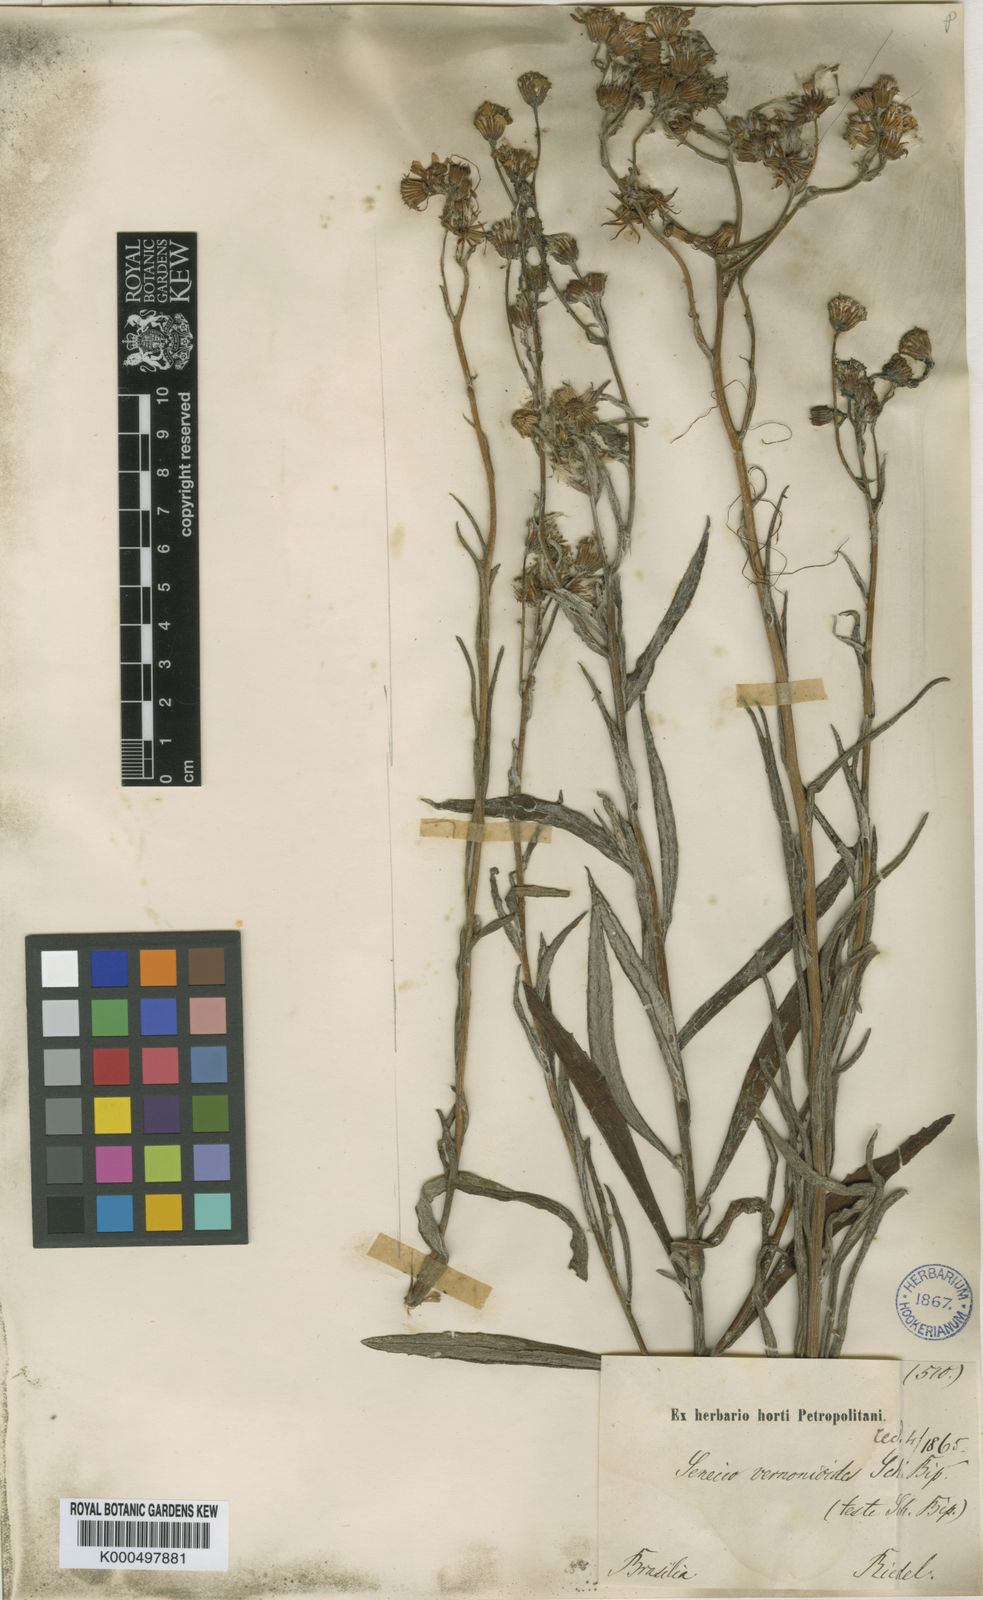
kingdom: Plantae
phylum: Tracheophyta
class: Magnoliopsida
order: Asterales
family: Asteraceae
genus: Senecio
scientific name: Senecio lanifer
